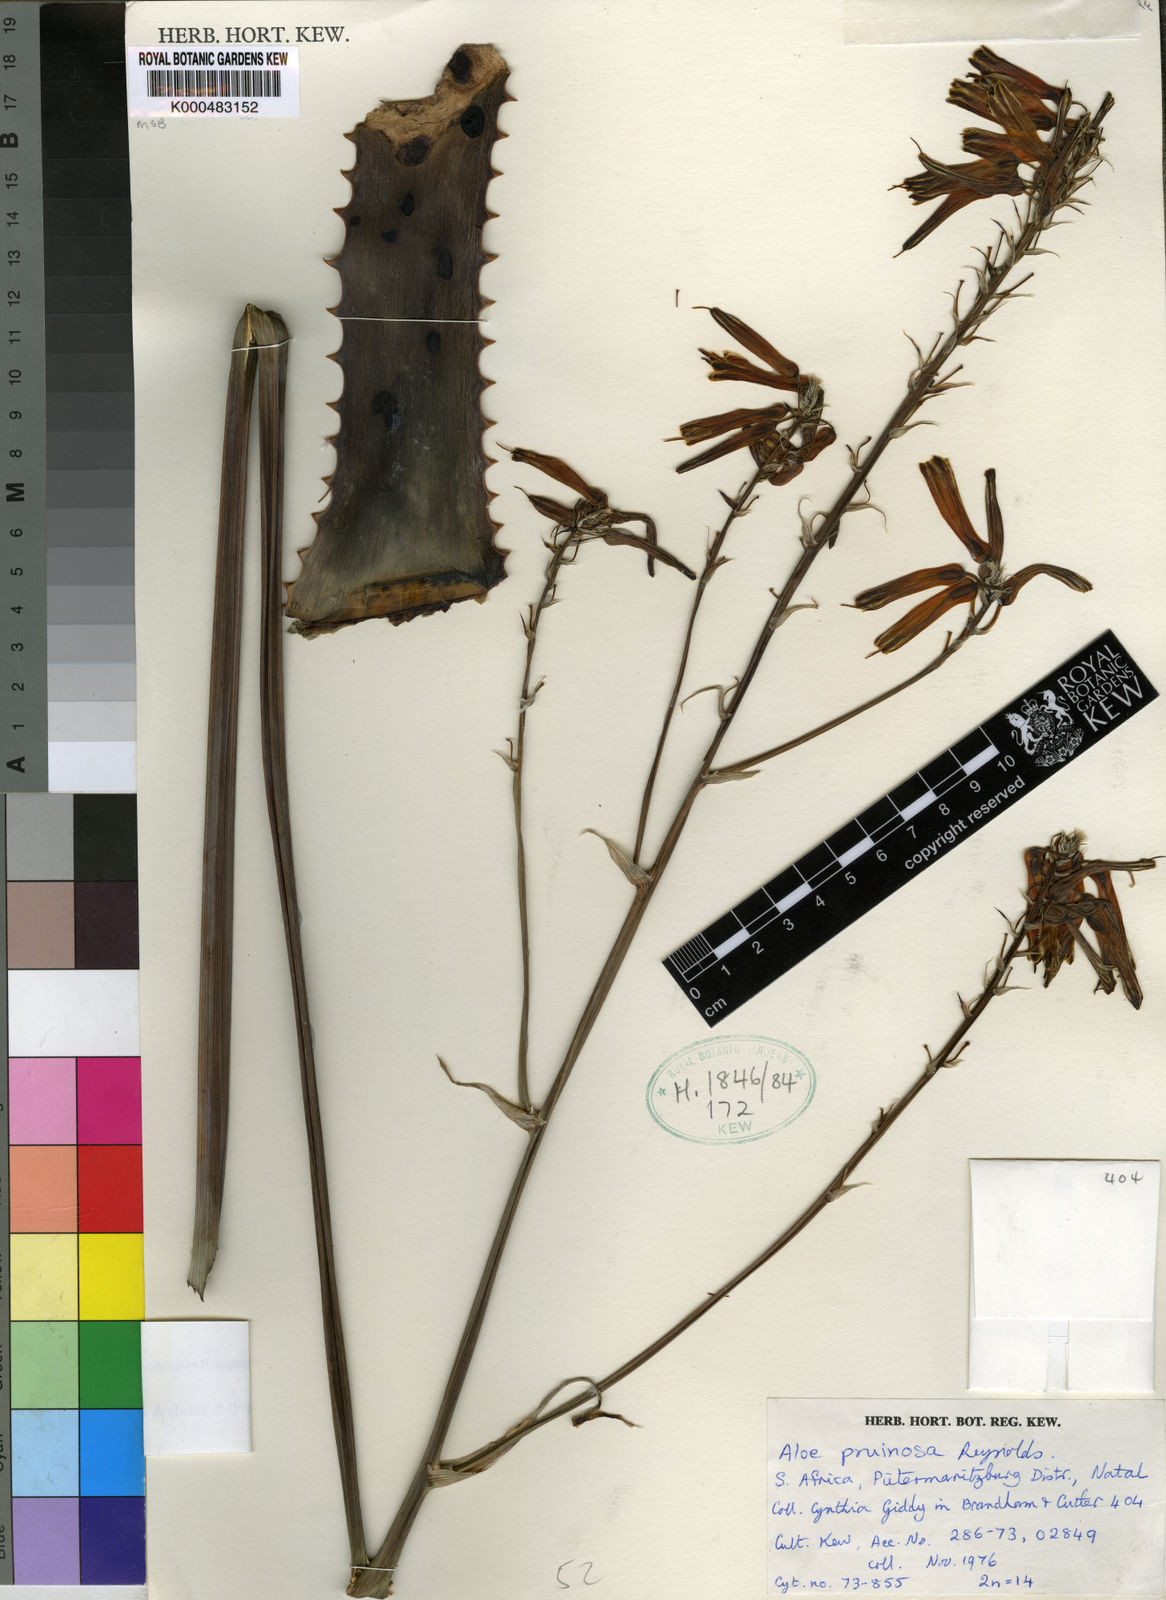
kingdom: Plantae
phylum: Tracheophyta
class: Liliopsida
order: Asparagales
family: Asphodelaceae
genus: Aloe
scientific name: Aloe pruinosa
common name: Powder aloe
